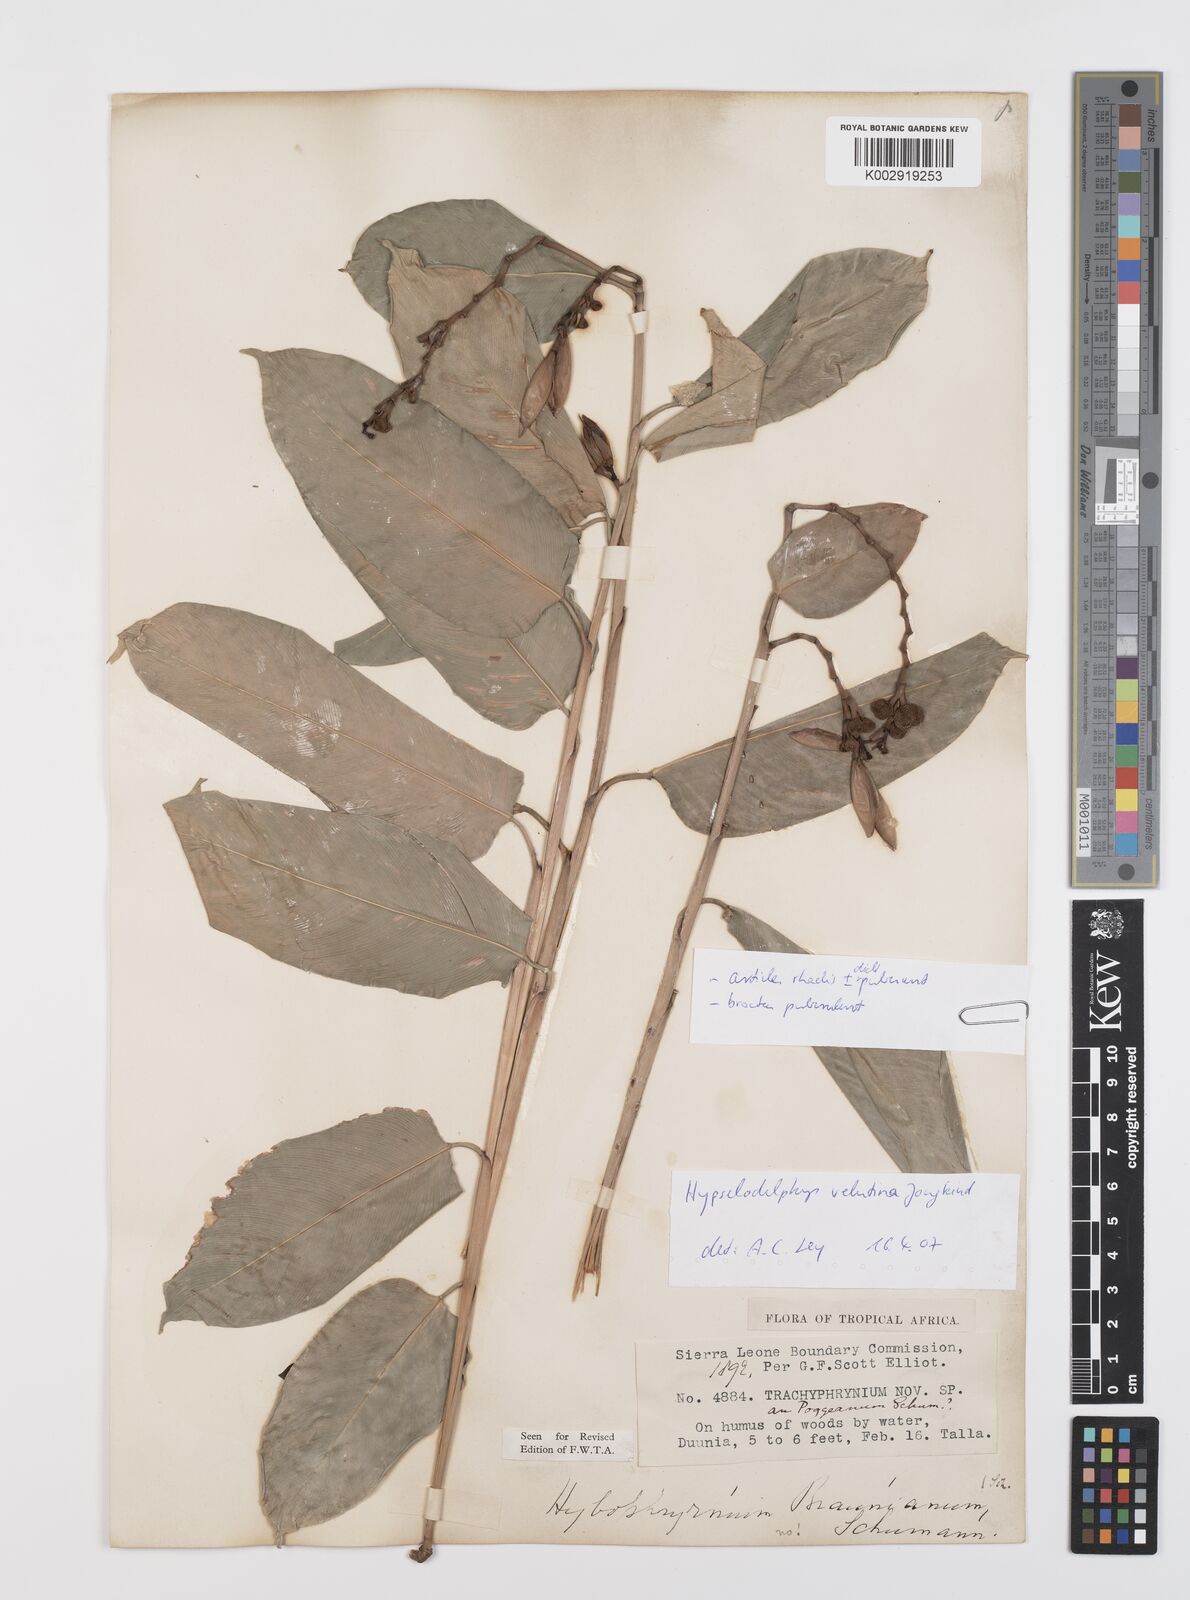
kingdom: Plantae
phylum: Tracheophyta
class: Liliopsida
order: Zingiberales
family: Marantaceae
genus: Hypselodelphys
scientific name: Hypselodelphys velutina
